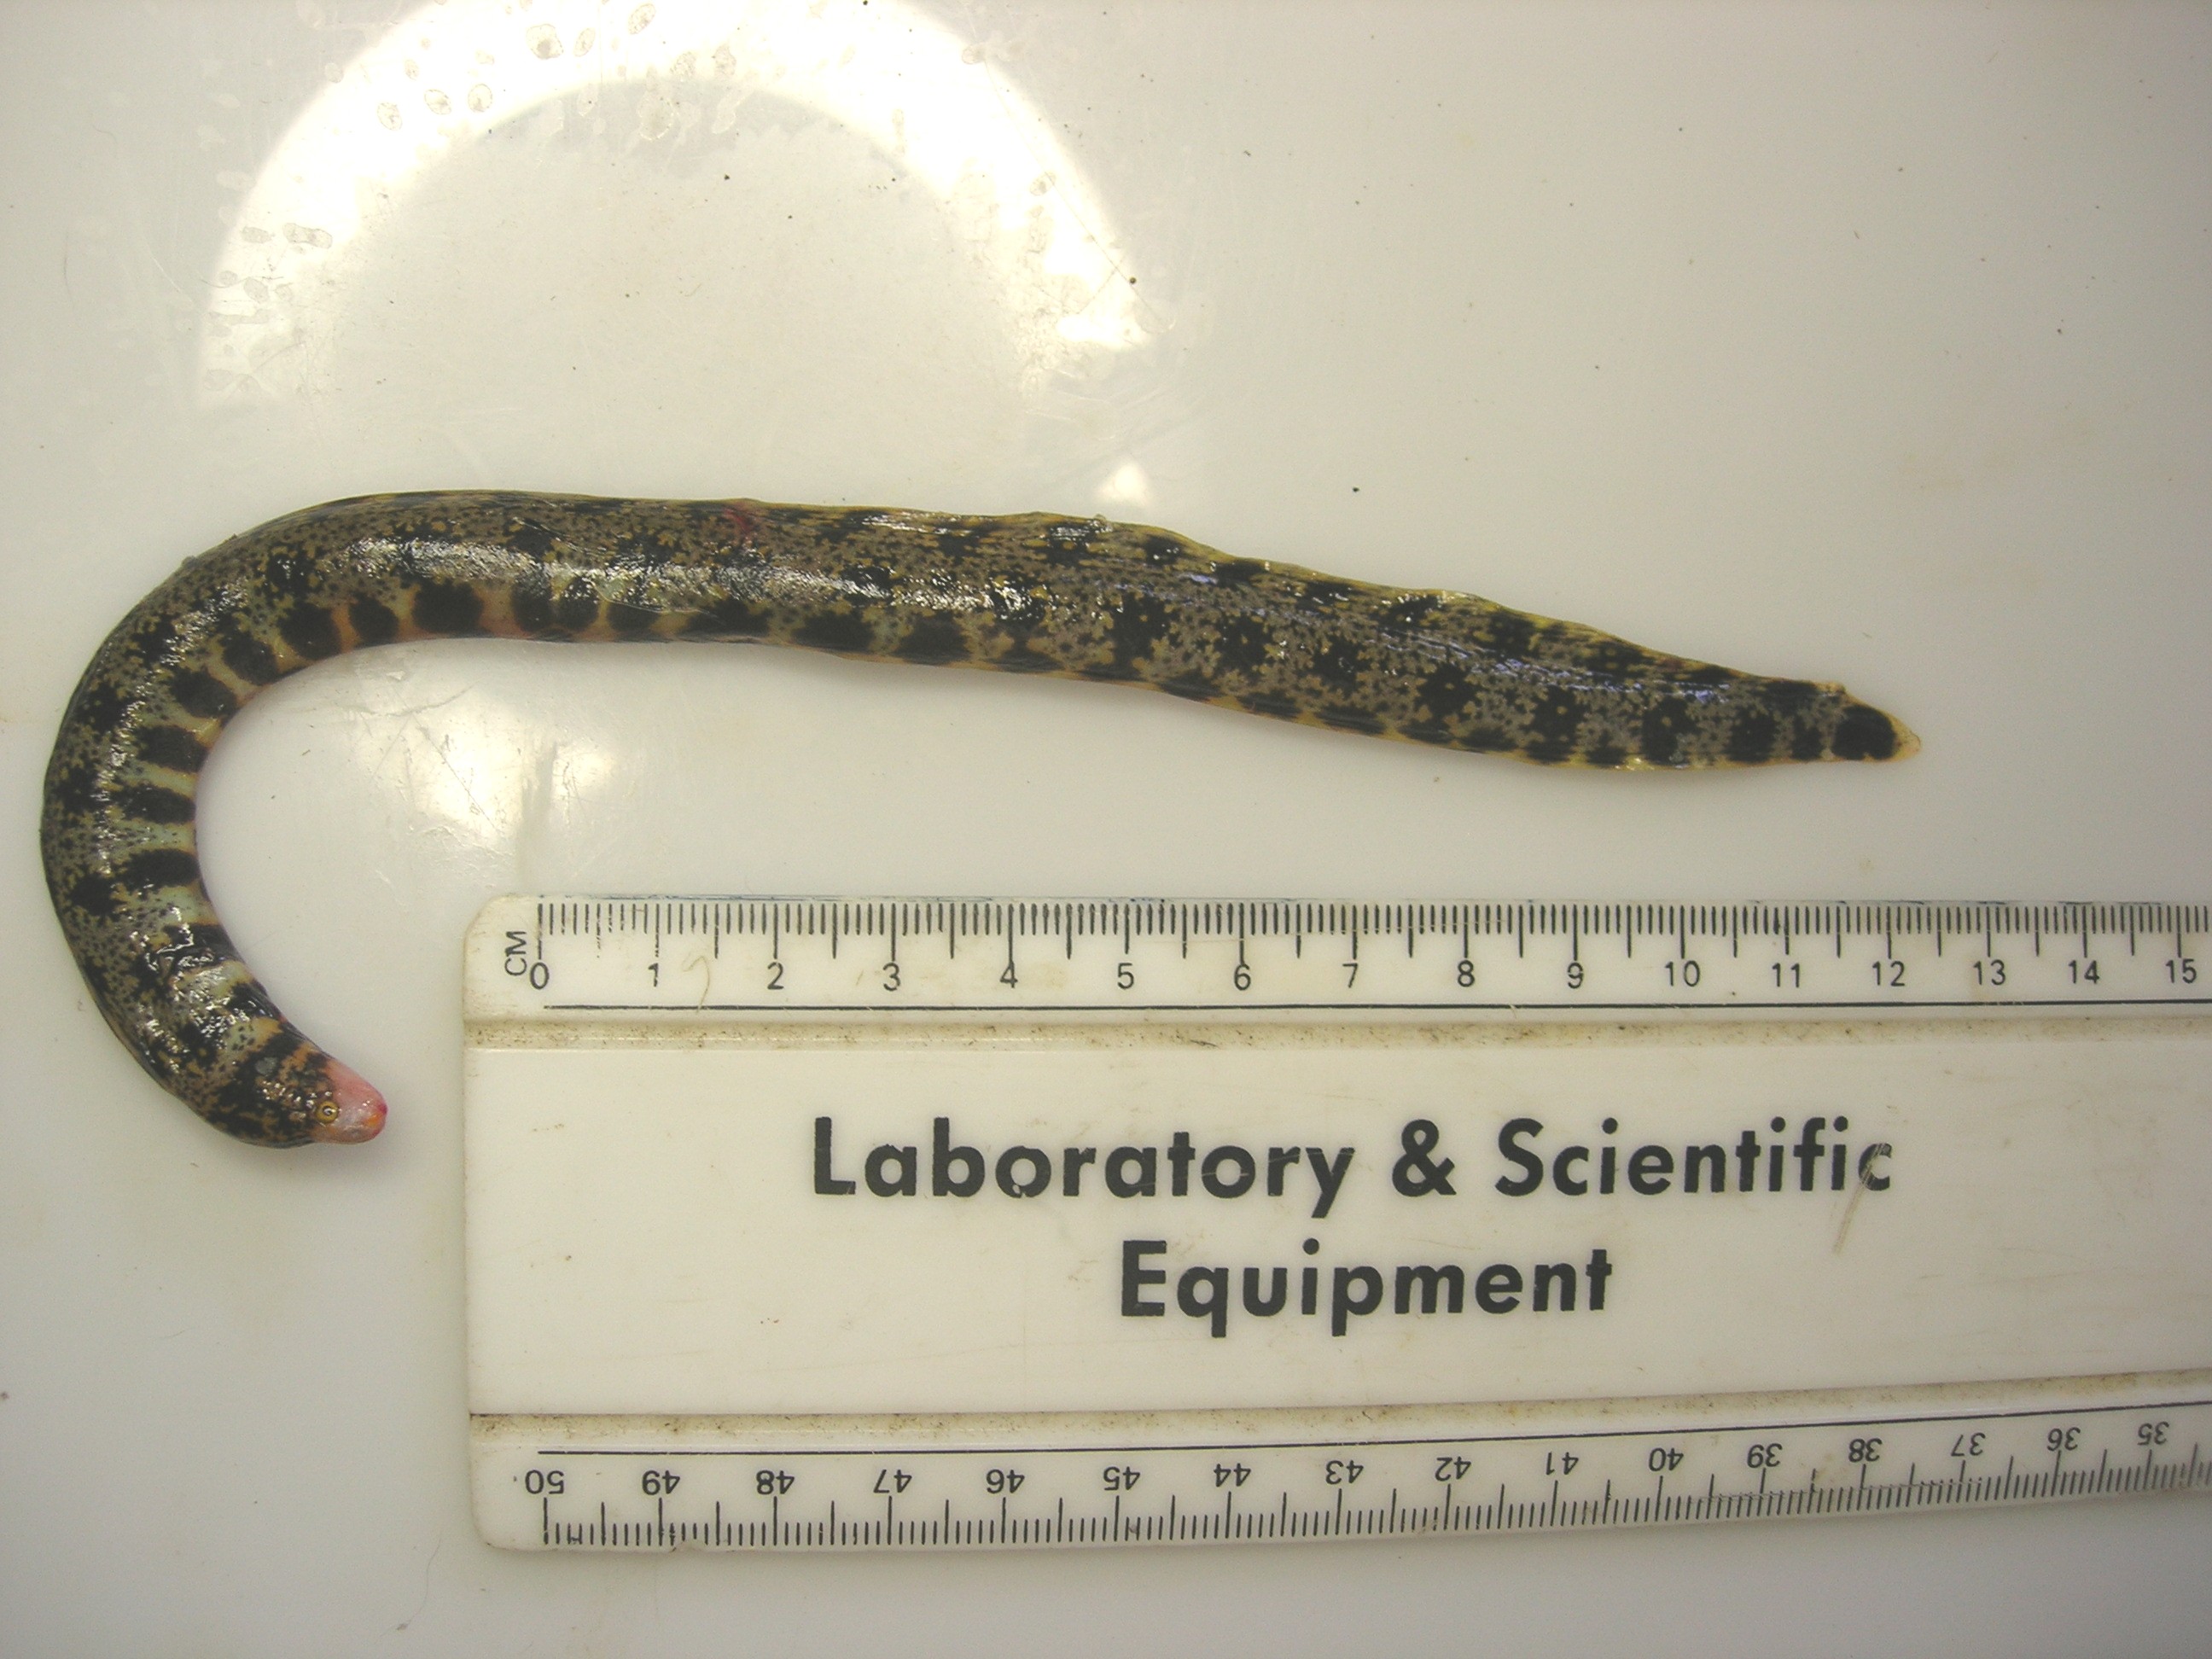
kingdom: Animalia
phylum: Chordata
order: Anguilliformes
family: Muraenidae
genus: Echidna
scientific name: Echidna nebulosa
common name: Snowflake moray
